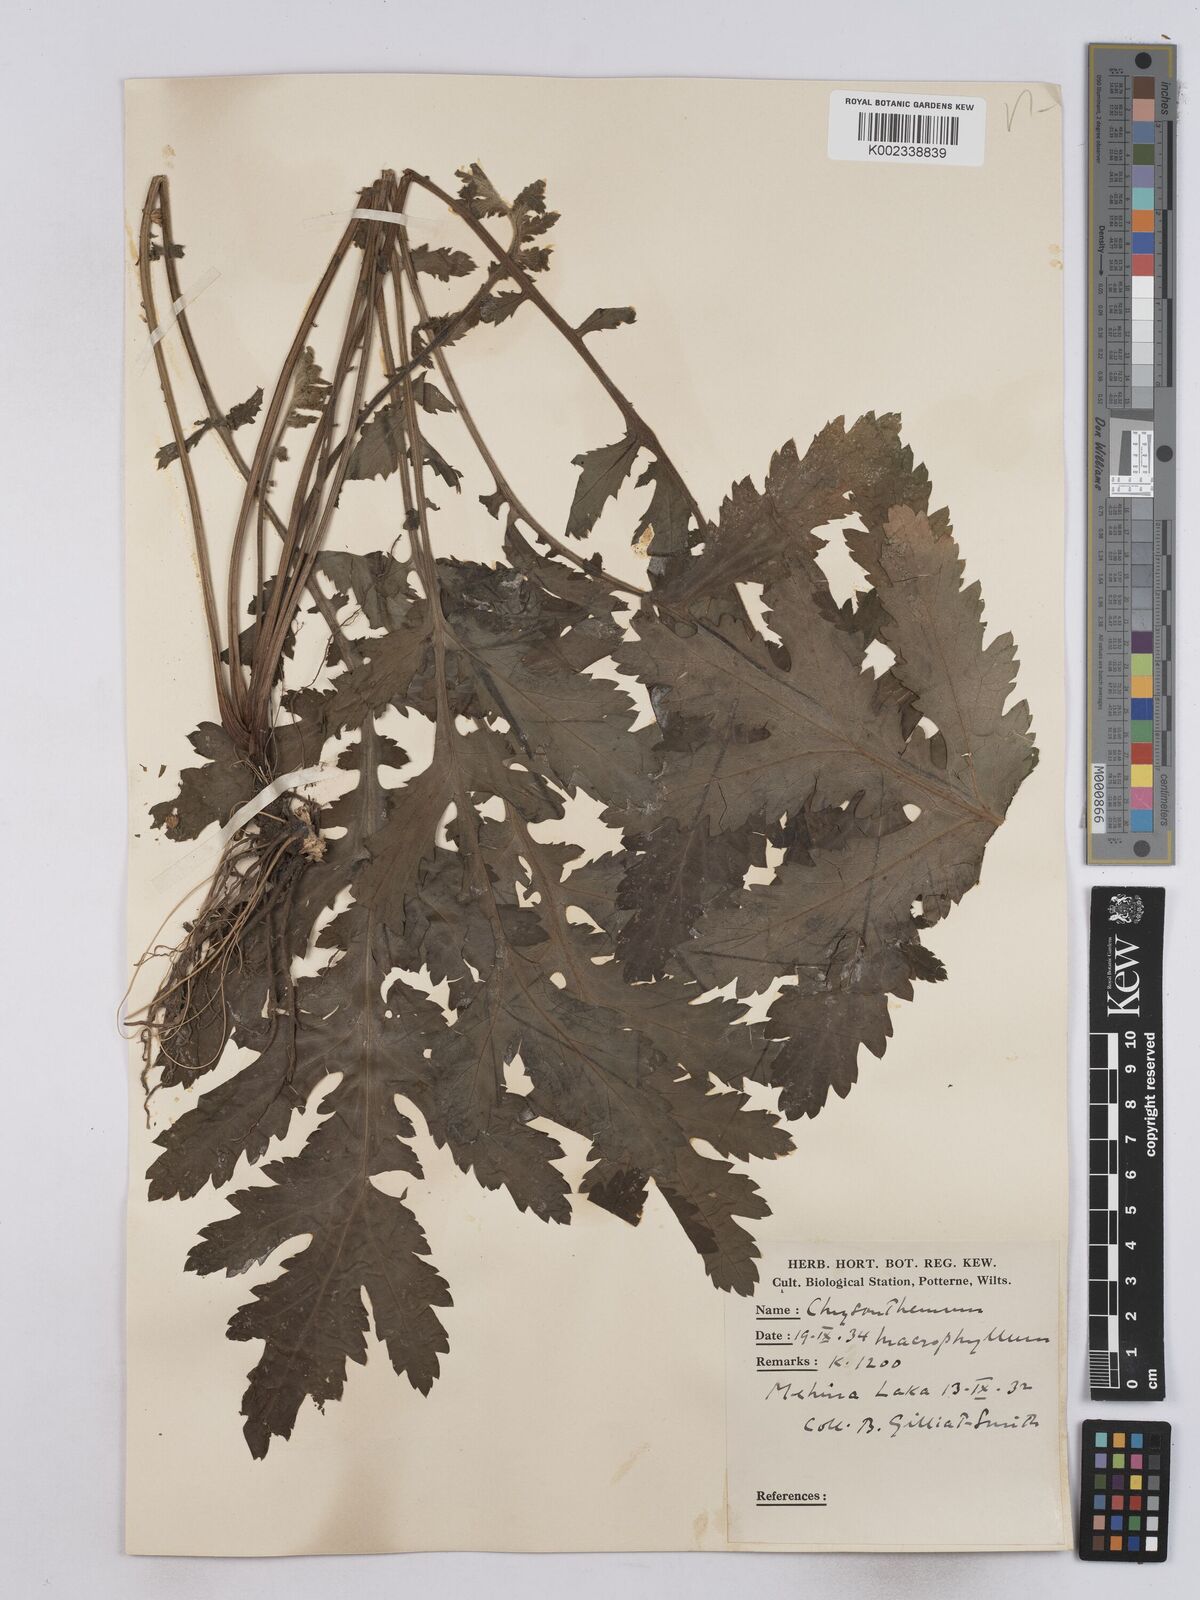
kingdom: Plantae
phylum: Tracheophyta
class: Magnoliopsida
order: Asterales
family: Asteraceae
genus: Tanacetum
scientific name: Tanacetum macrophyllum
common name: Rayed tansy
